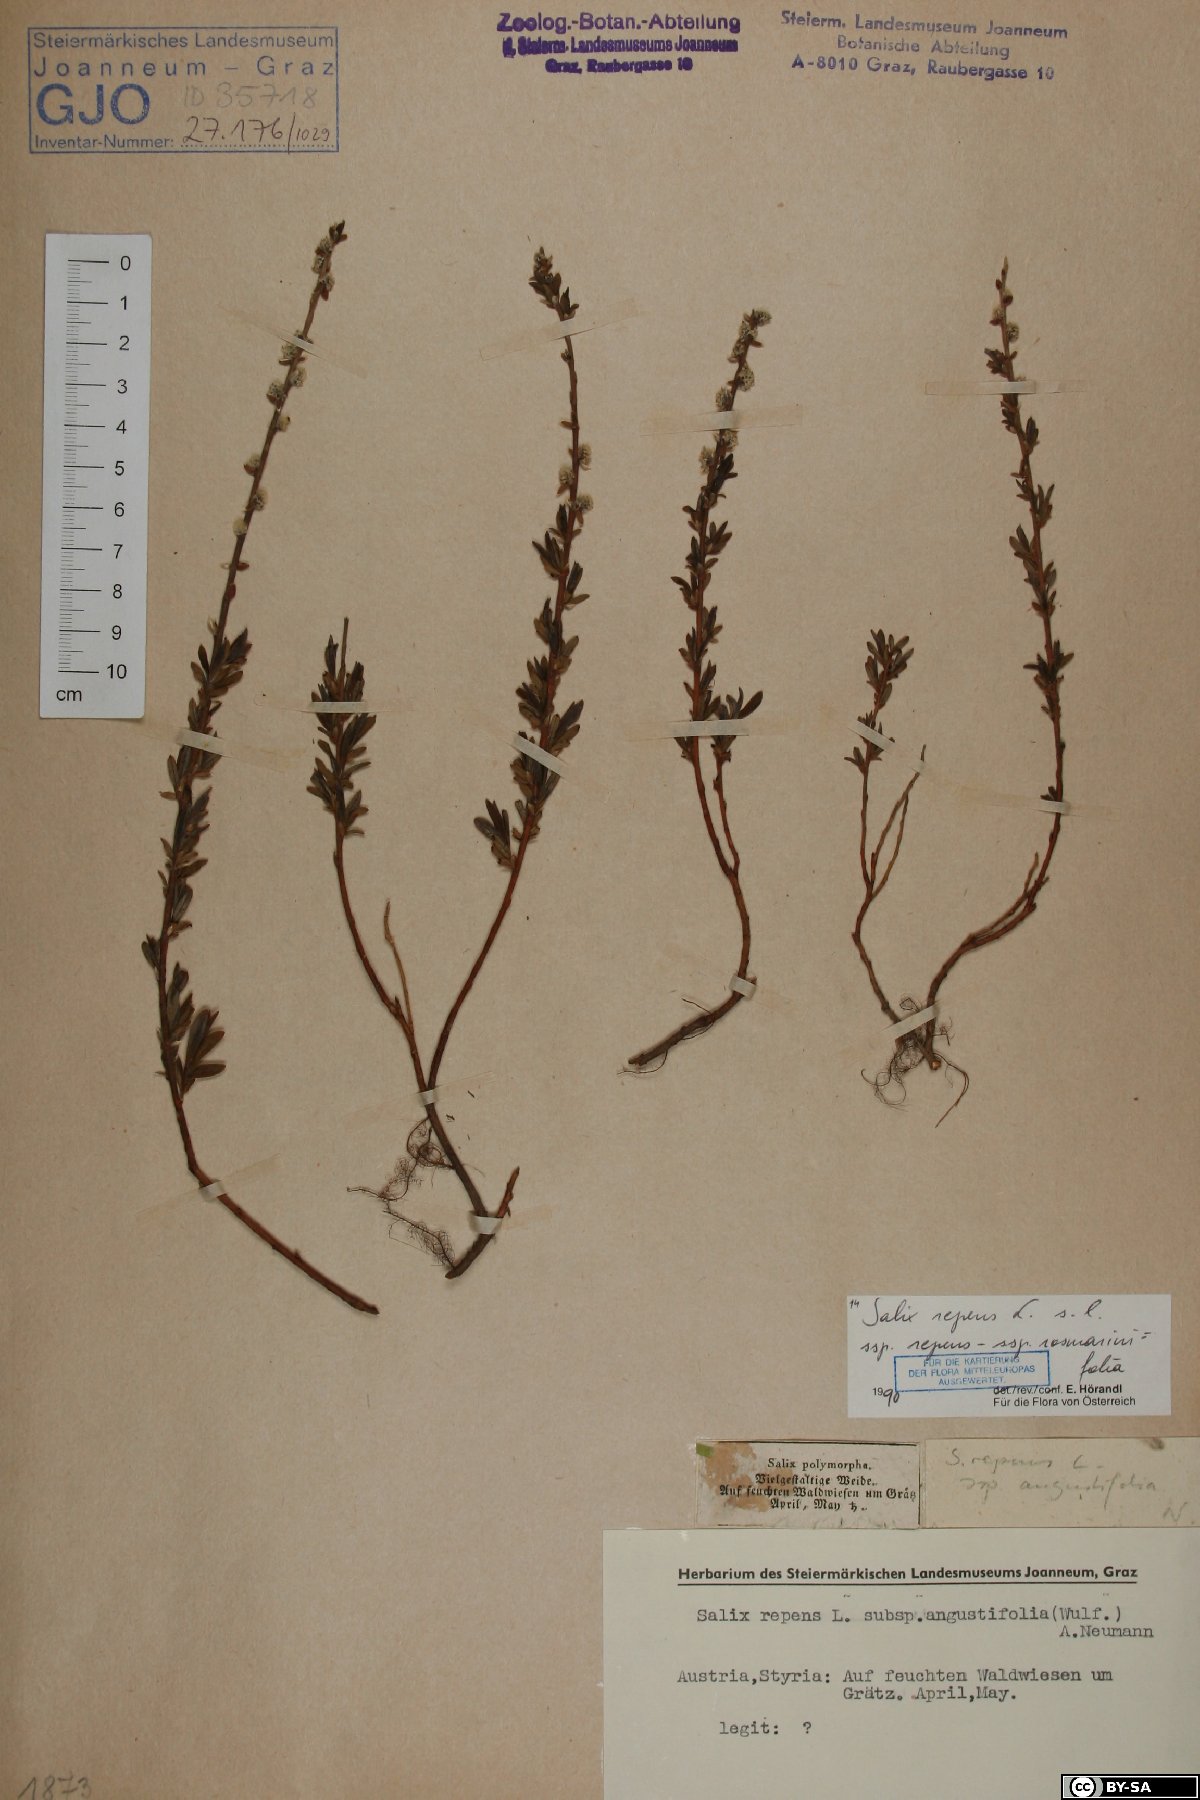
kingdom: Plantae
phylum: Tracheophyta
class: Magnoliopsida
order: Malpighiales
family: Salicaceae
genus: Salix
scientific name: Salix repens
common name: Creeping willow
